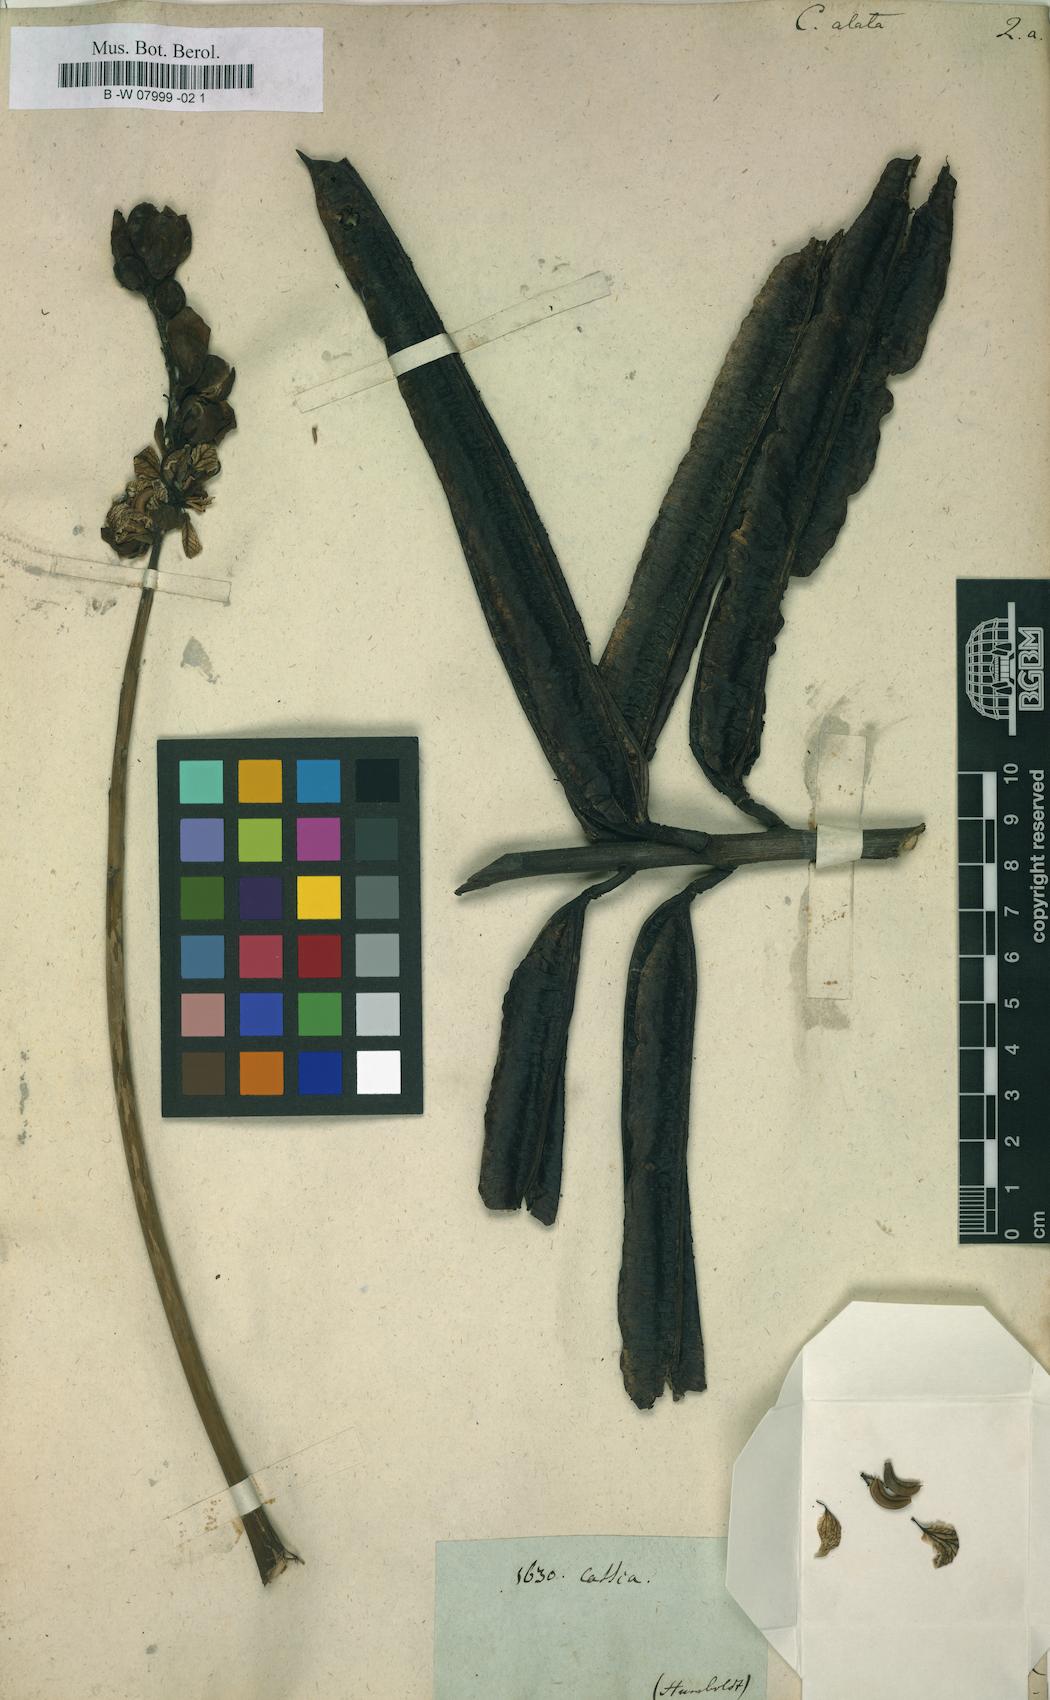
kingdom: Plantae
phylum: Tracheophyta
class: Magnoliopsida
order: Fabales
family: Fabaceae
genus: Senna
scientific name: Senna alata
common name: Emperor's candlesticks
